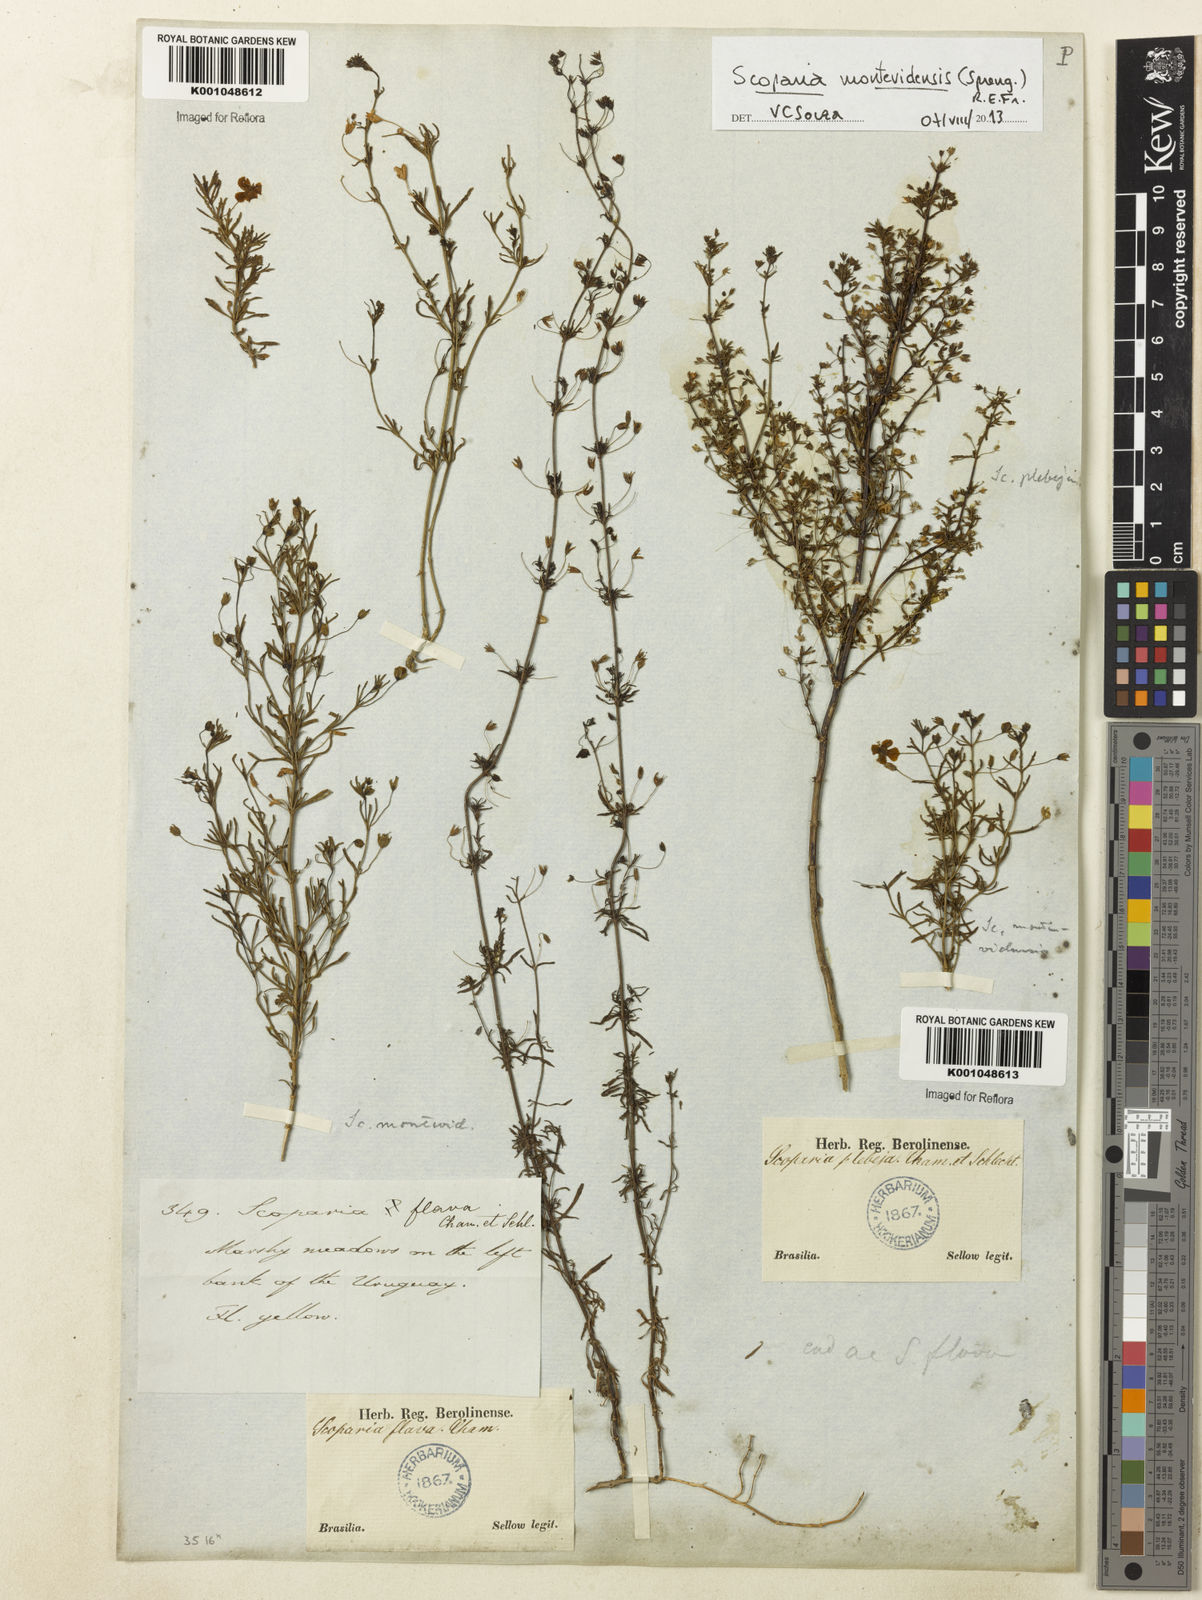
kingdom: Plantae
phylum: Tracheophyta
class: Magnoliopsida
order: Lamiales
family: Plantaginaceae
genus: Scoparia
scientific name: Scoparia montevidensis
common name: Broomwort
